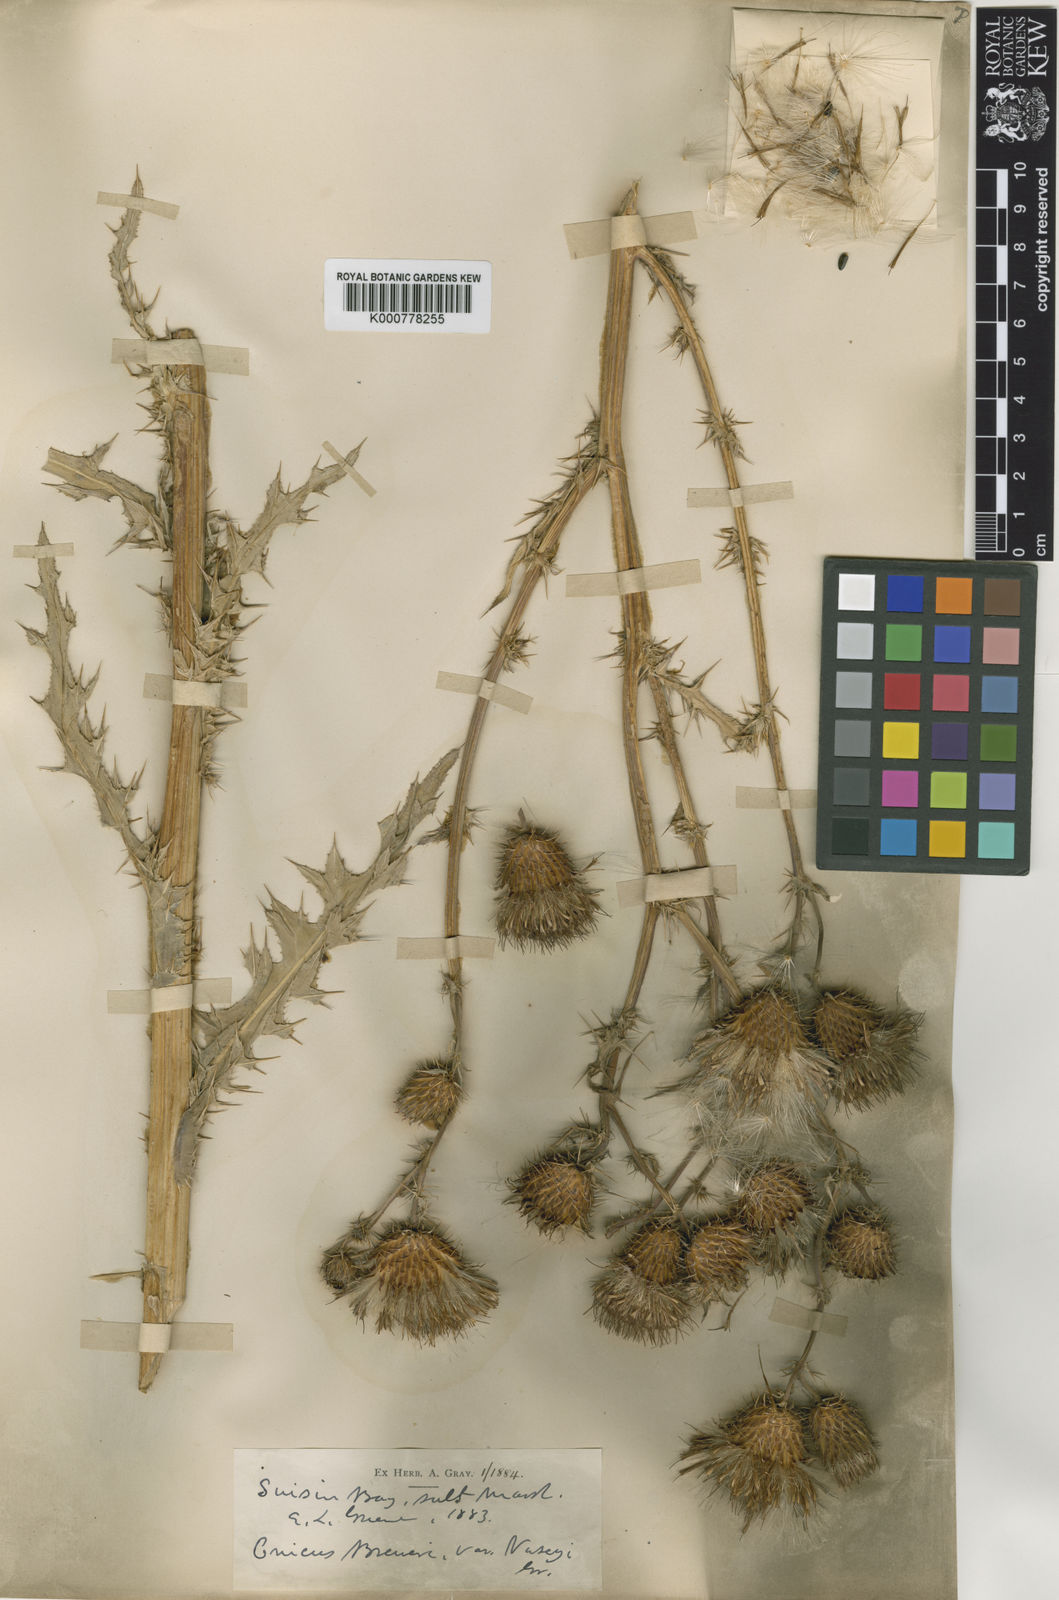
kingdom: Plantae
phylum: Tracheophyta
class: Magnoliopsida
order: Asterales
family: Asteraceae
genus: Cirsium
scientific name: Cirsium douglasii
